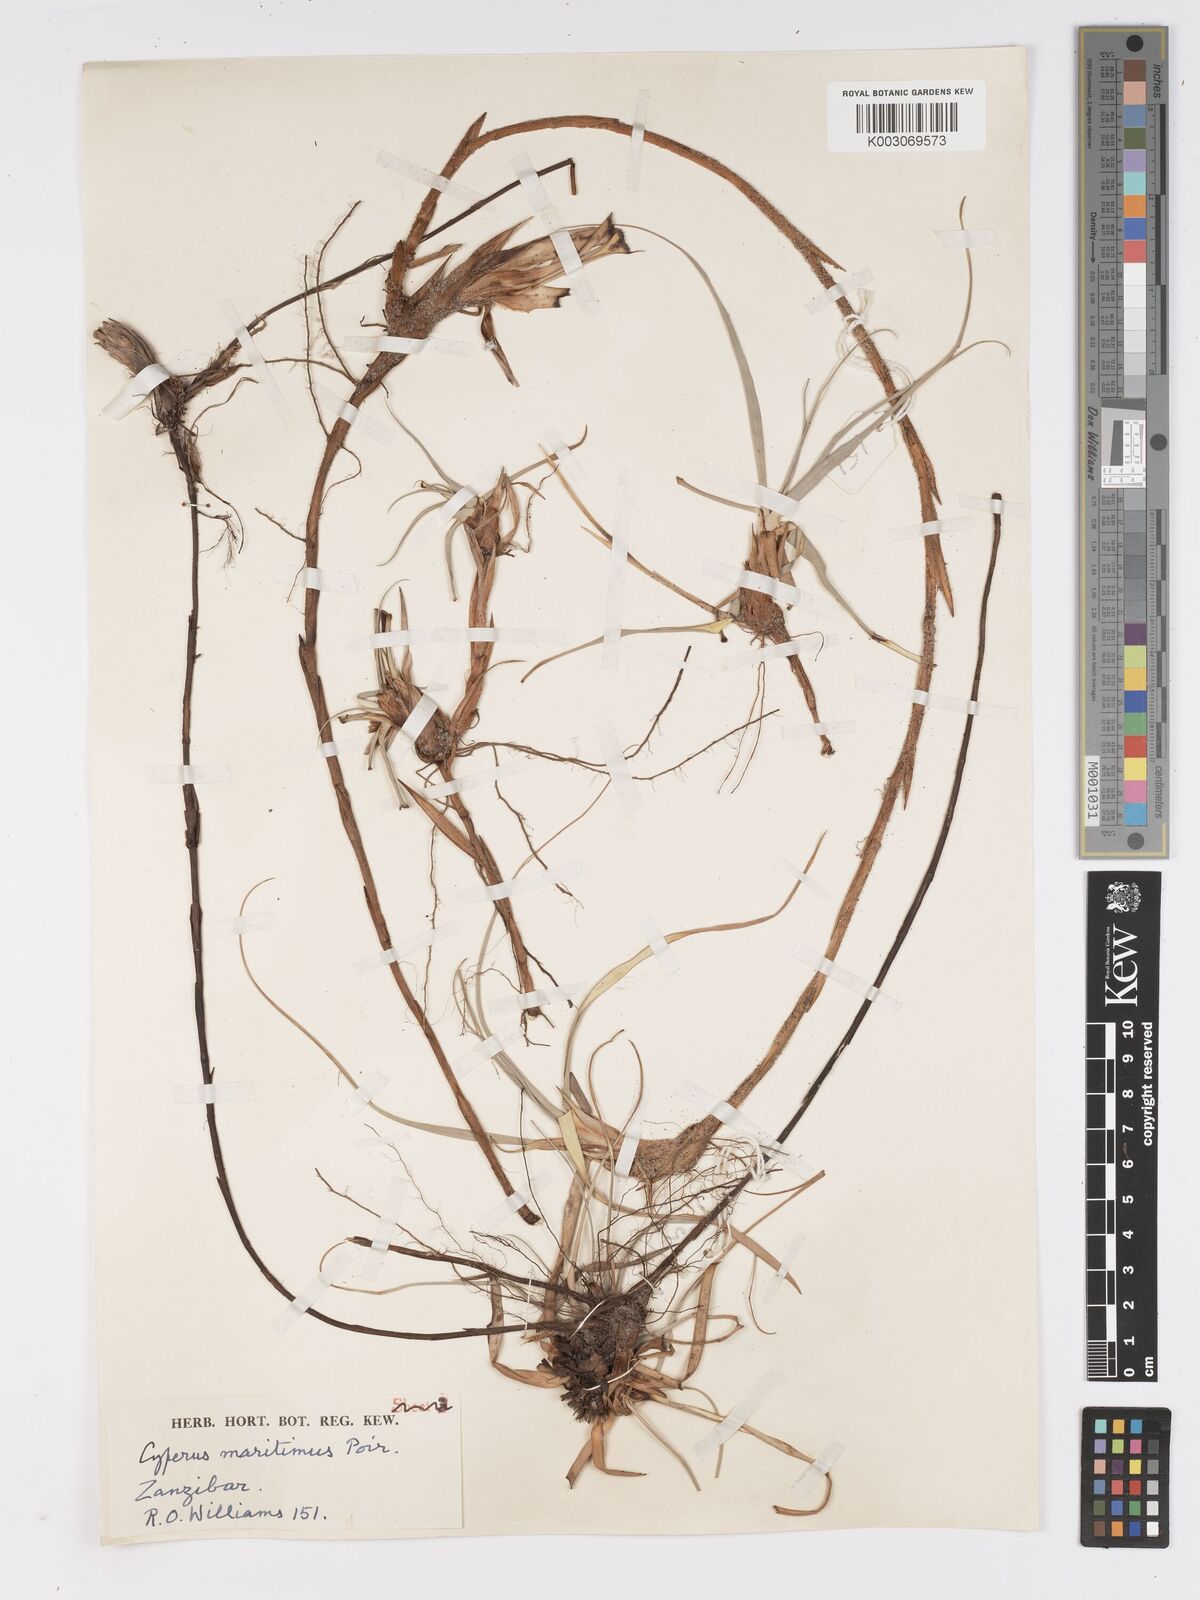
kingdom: Plantae
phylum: Tracheophyta
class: Liliopsida
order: Poales
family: Cyperaceae
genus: Cyperus
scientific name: Cyperus crassipes
